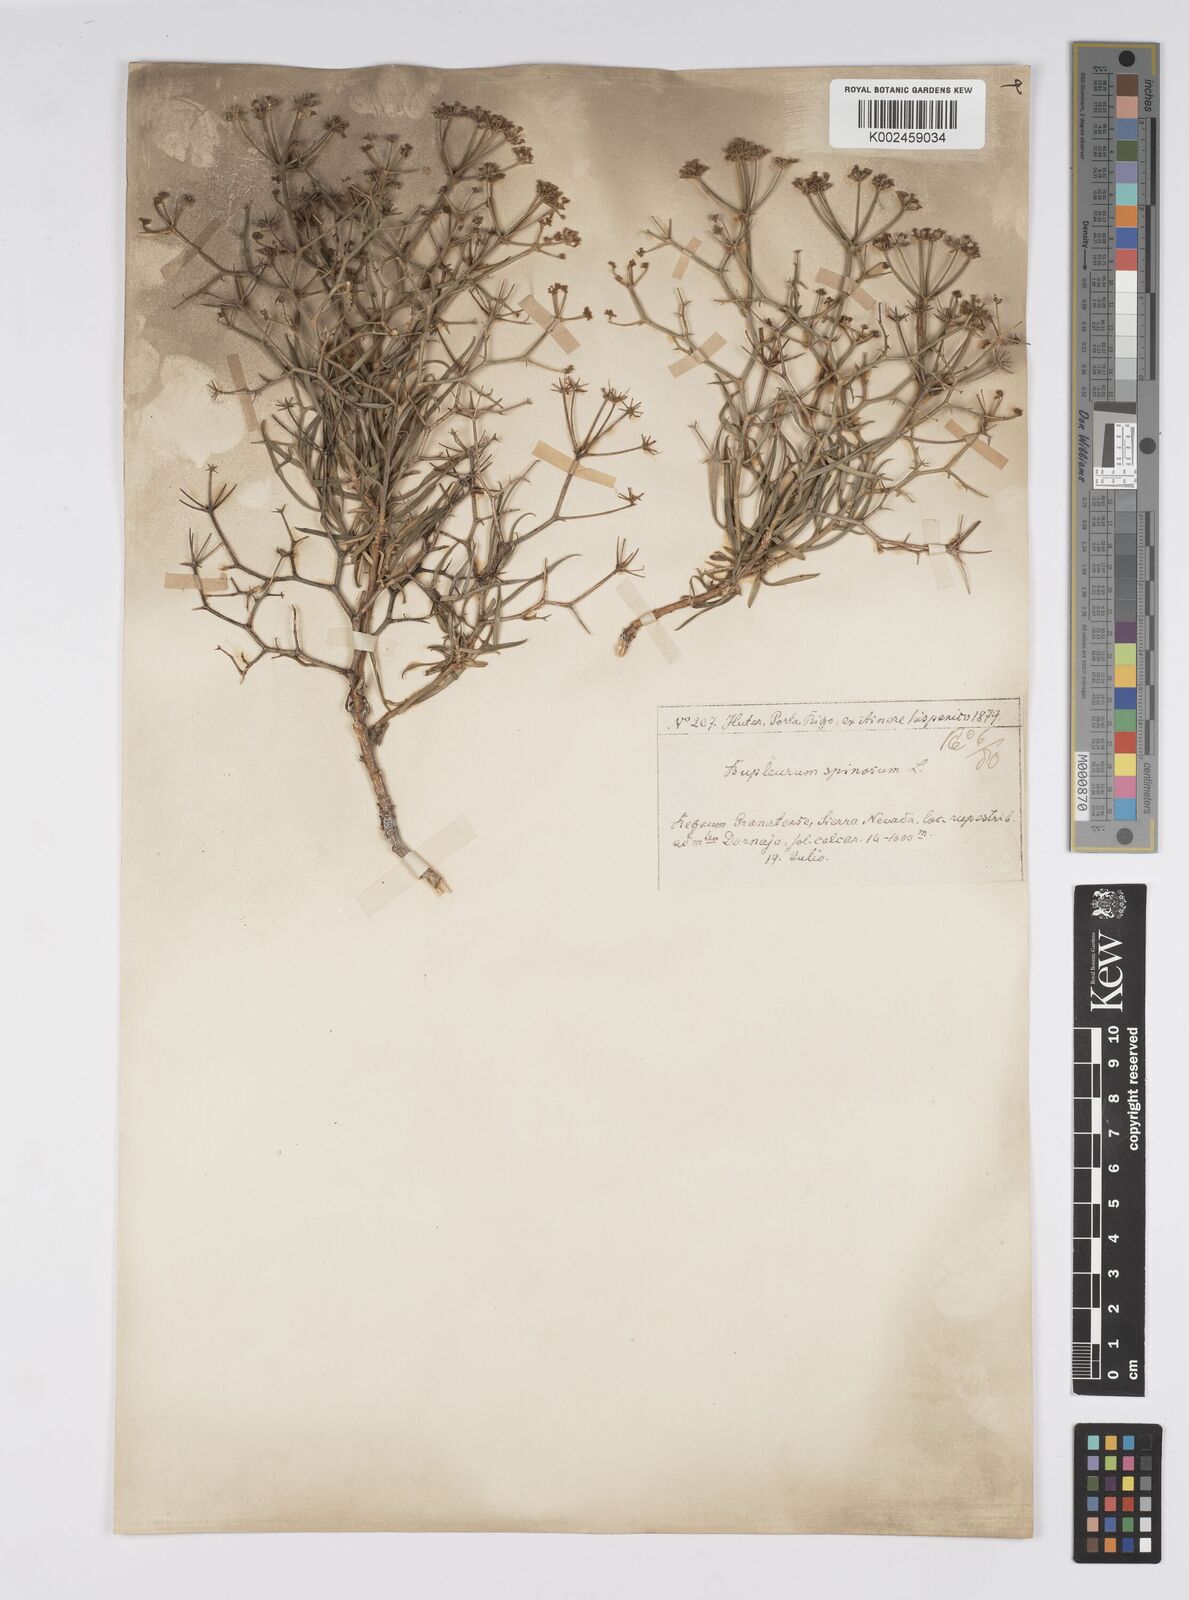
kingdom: Plantae
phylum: Tracheophyta
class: Magnoliopsida
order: Apiales
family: Apiaceae
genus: Bupleurum
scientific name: Bupleurum fruticescens
